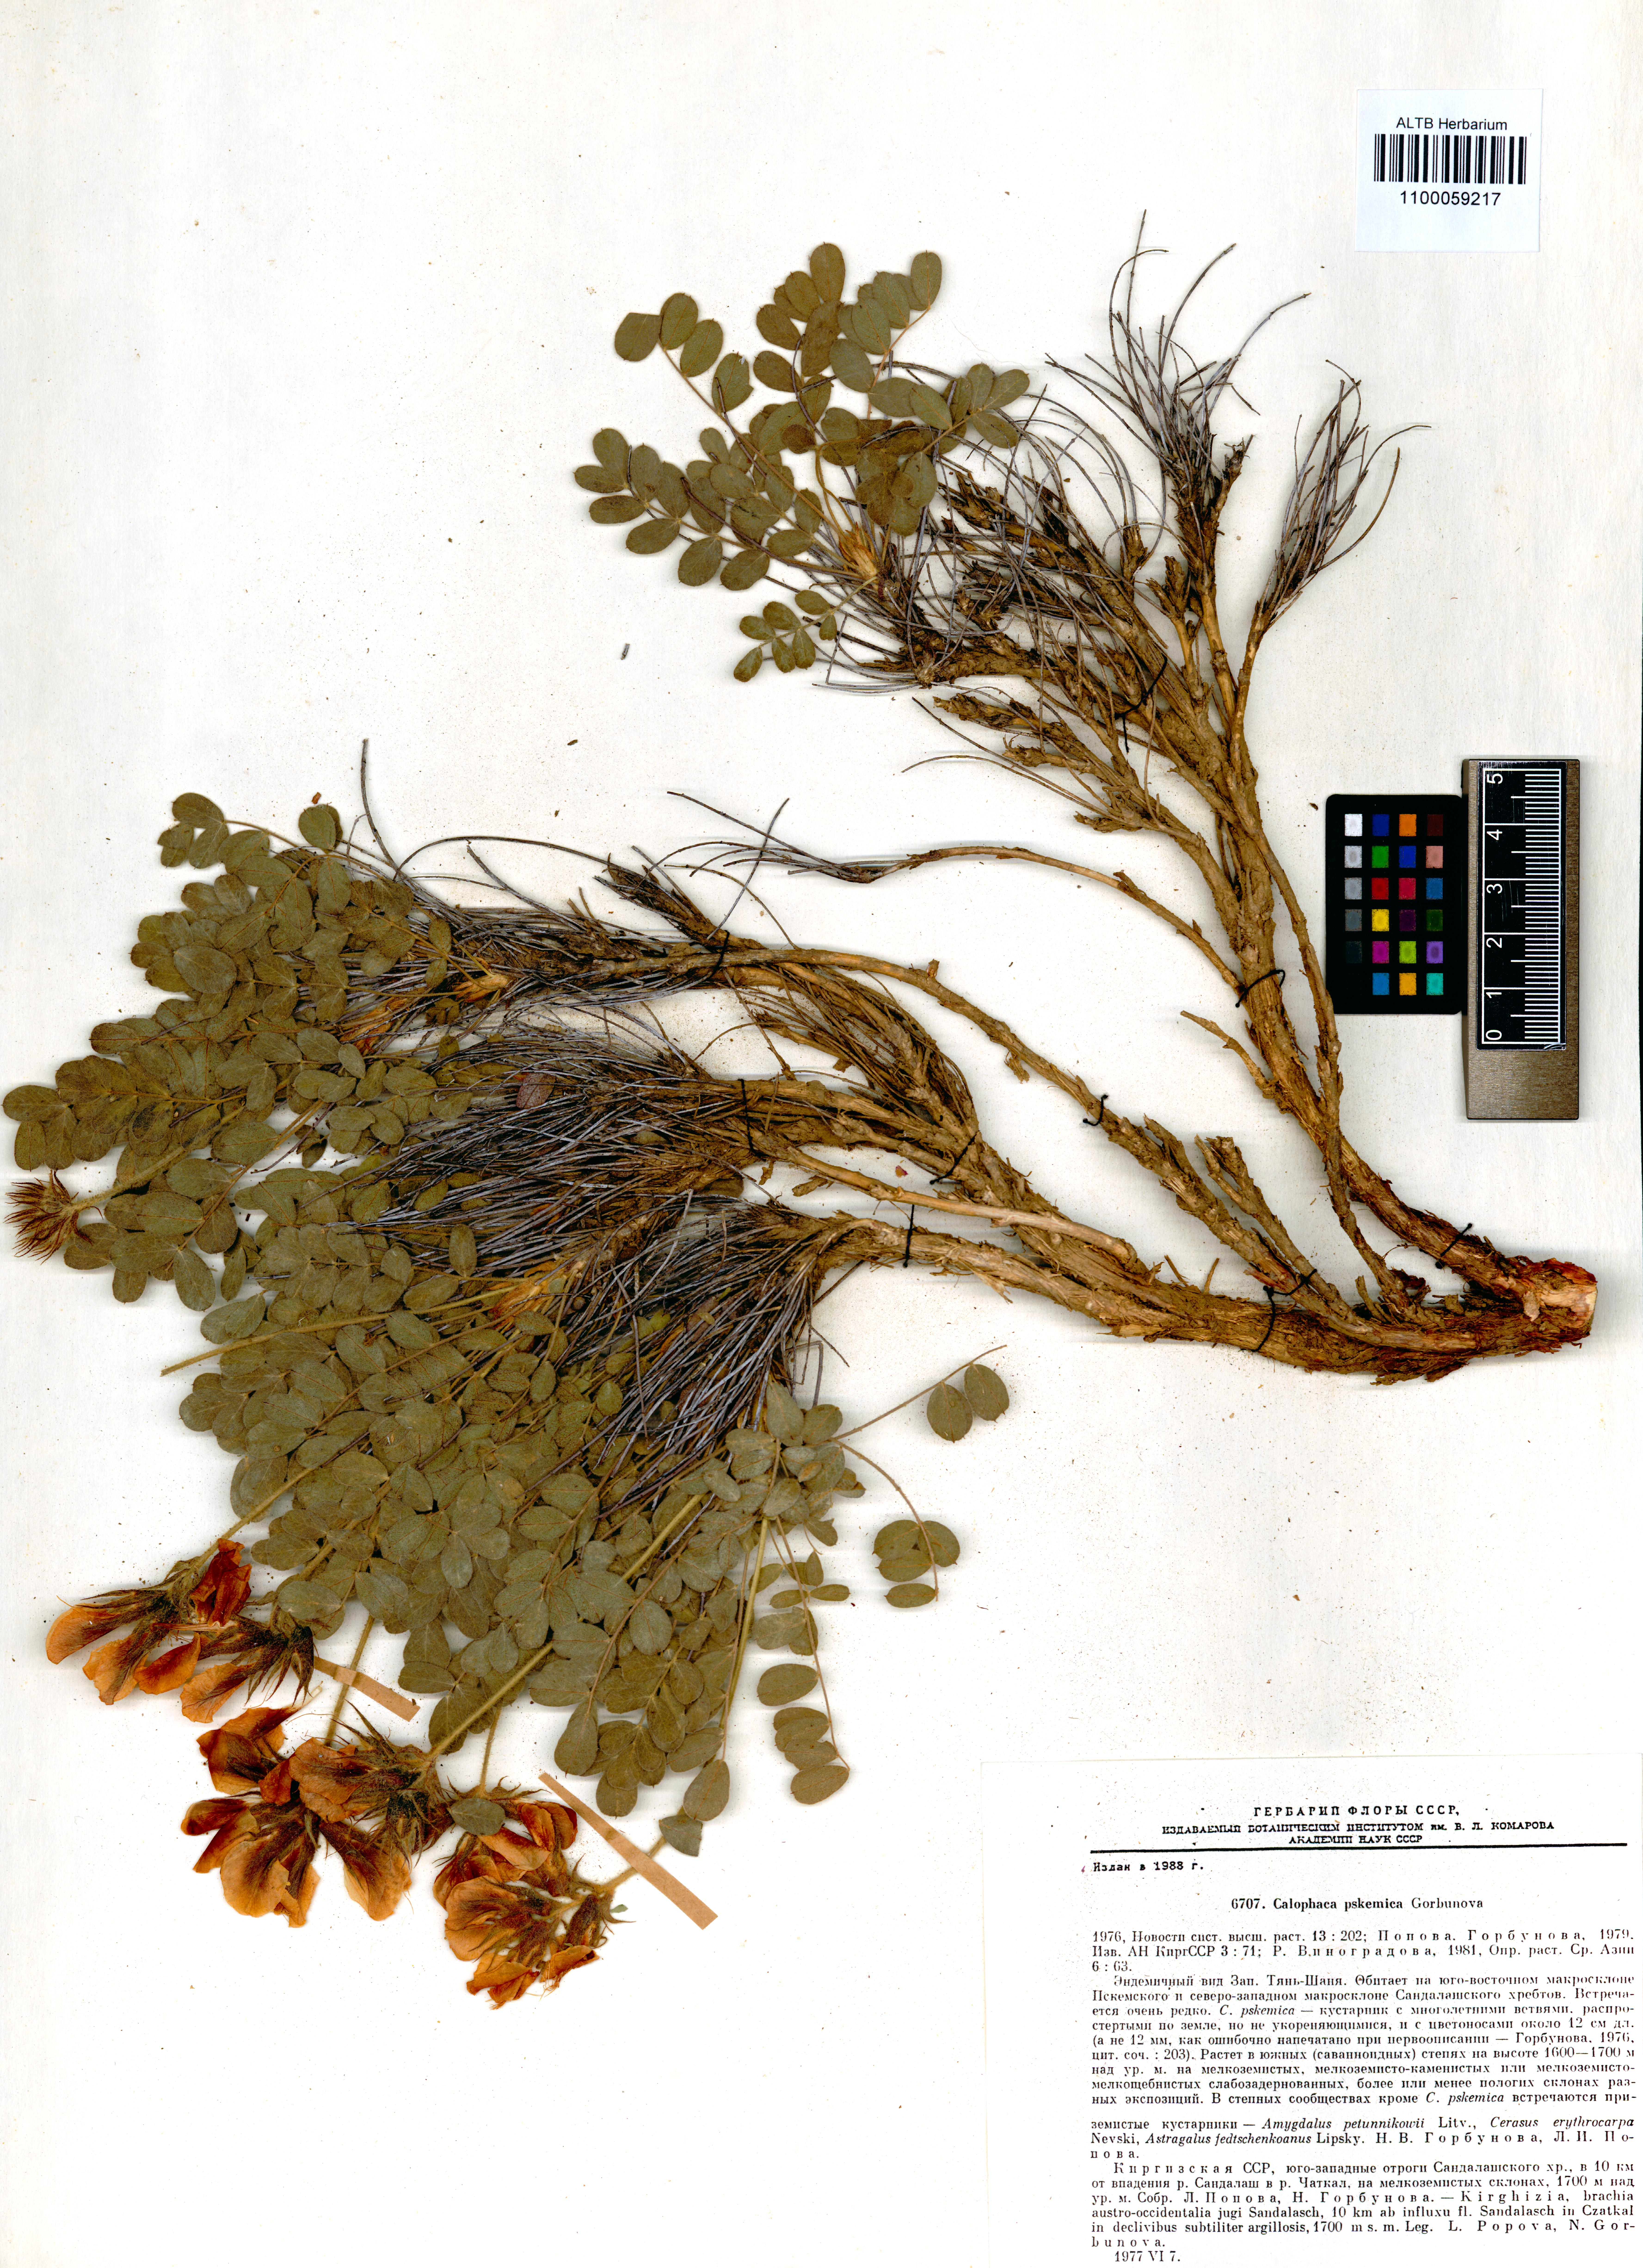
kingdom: Plantae
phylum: Tracheophyta
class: Magnoliopsida
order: Fabales
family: Fabaceae
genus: Calophaca
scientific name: Calophaca pskemica
